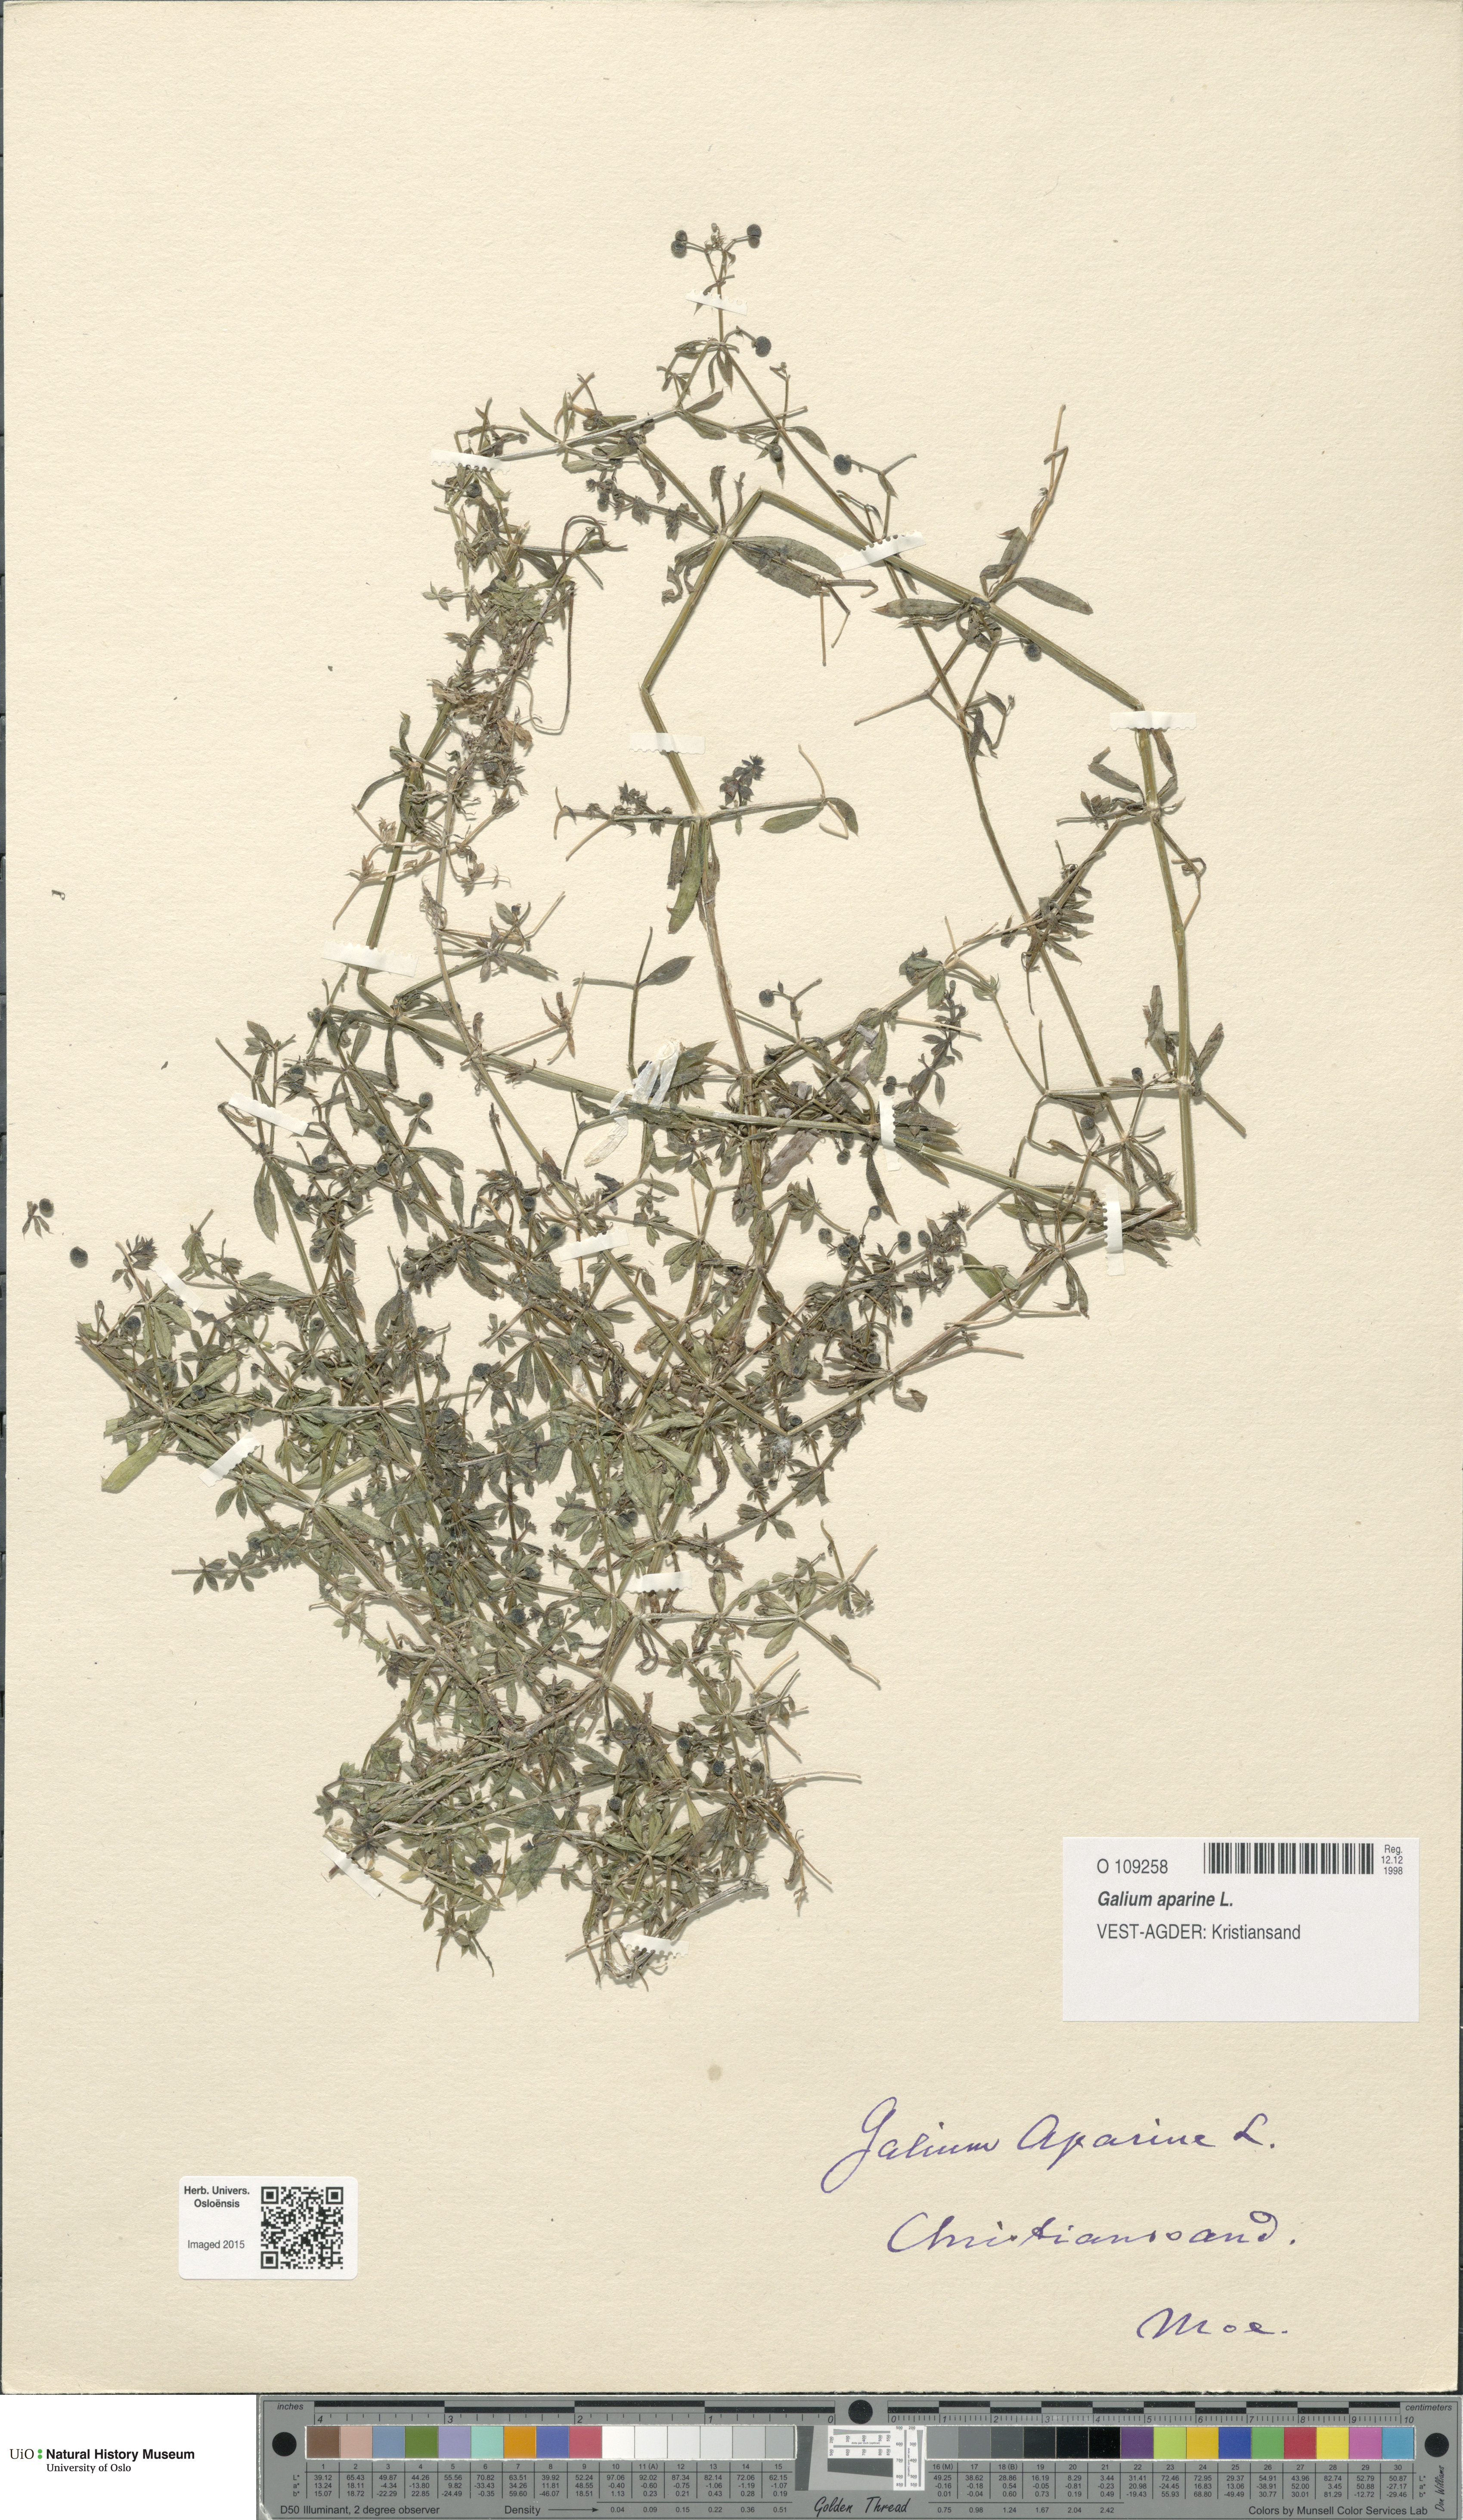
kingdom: Plantae
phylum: Tracheophyta
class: Magnoliopsida
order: Gentianales
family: Rubiaceae
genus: Galium
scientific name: Galium aparine
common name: Cleavers
